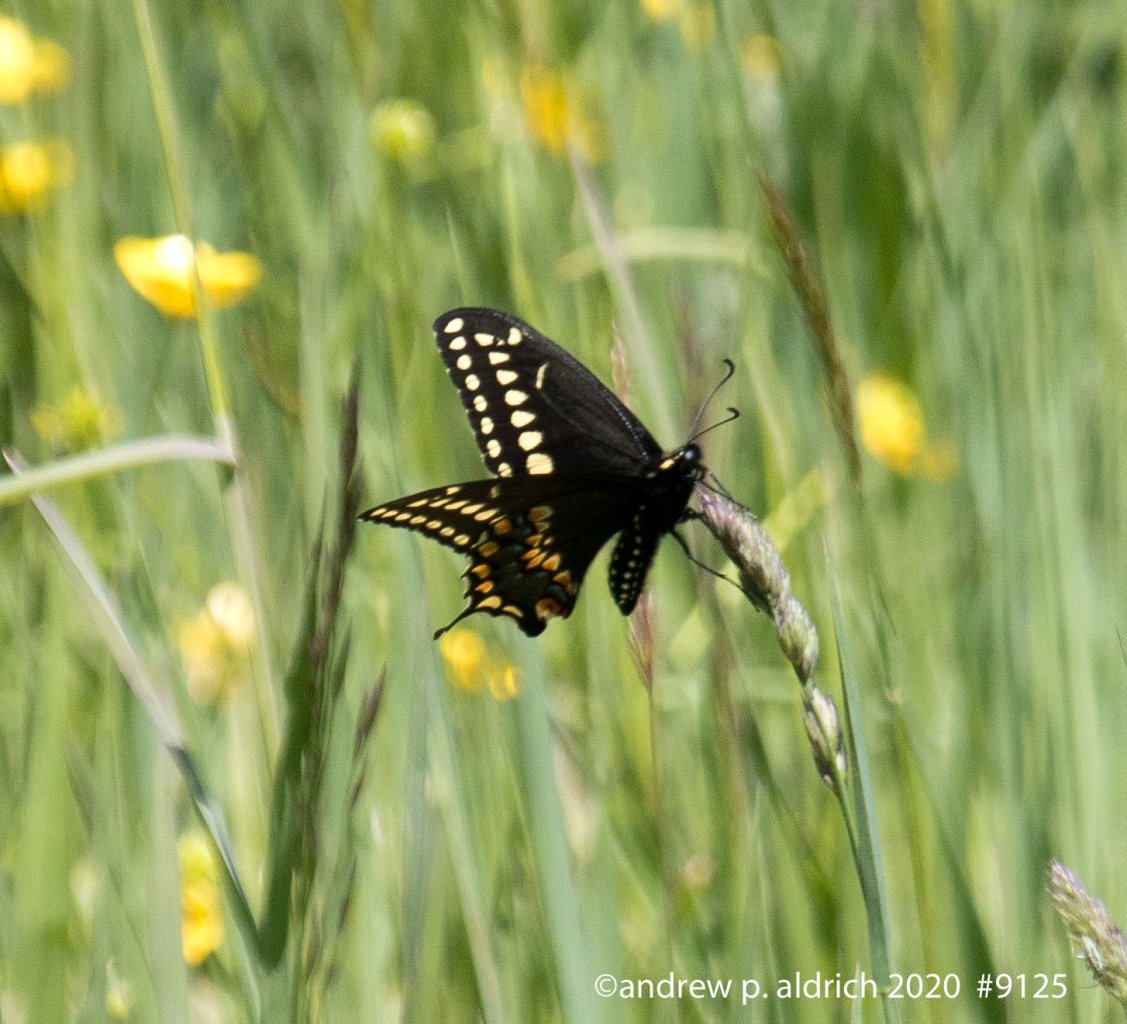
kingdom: Animalia
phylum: Arthropoda
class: Insecta
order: Lepidoptera
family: Papilionidae
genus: Papilio
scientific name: Papilio polyxenes
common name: Black Swallowtail
